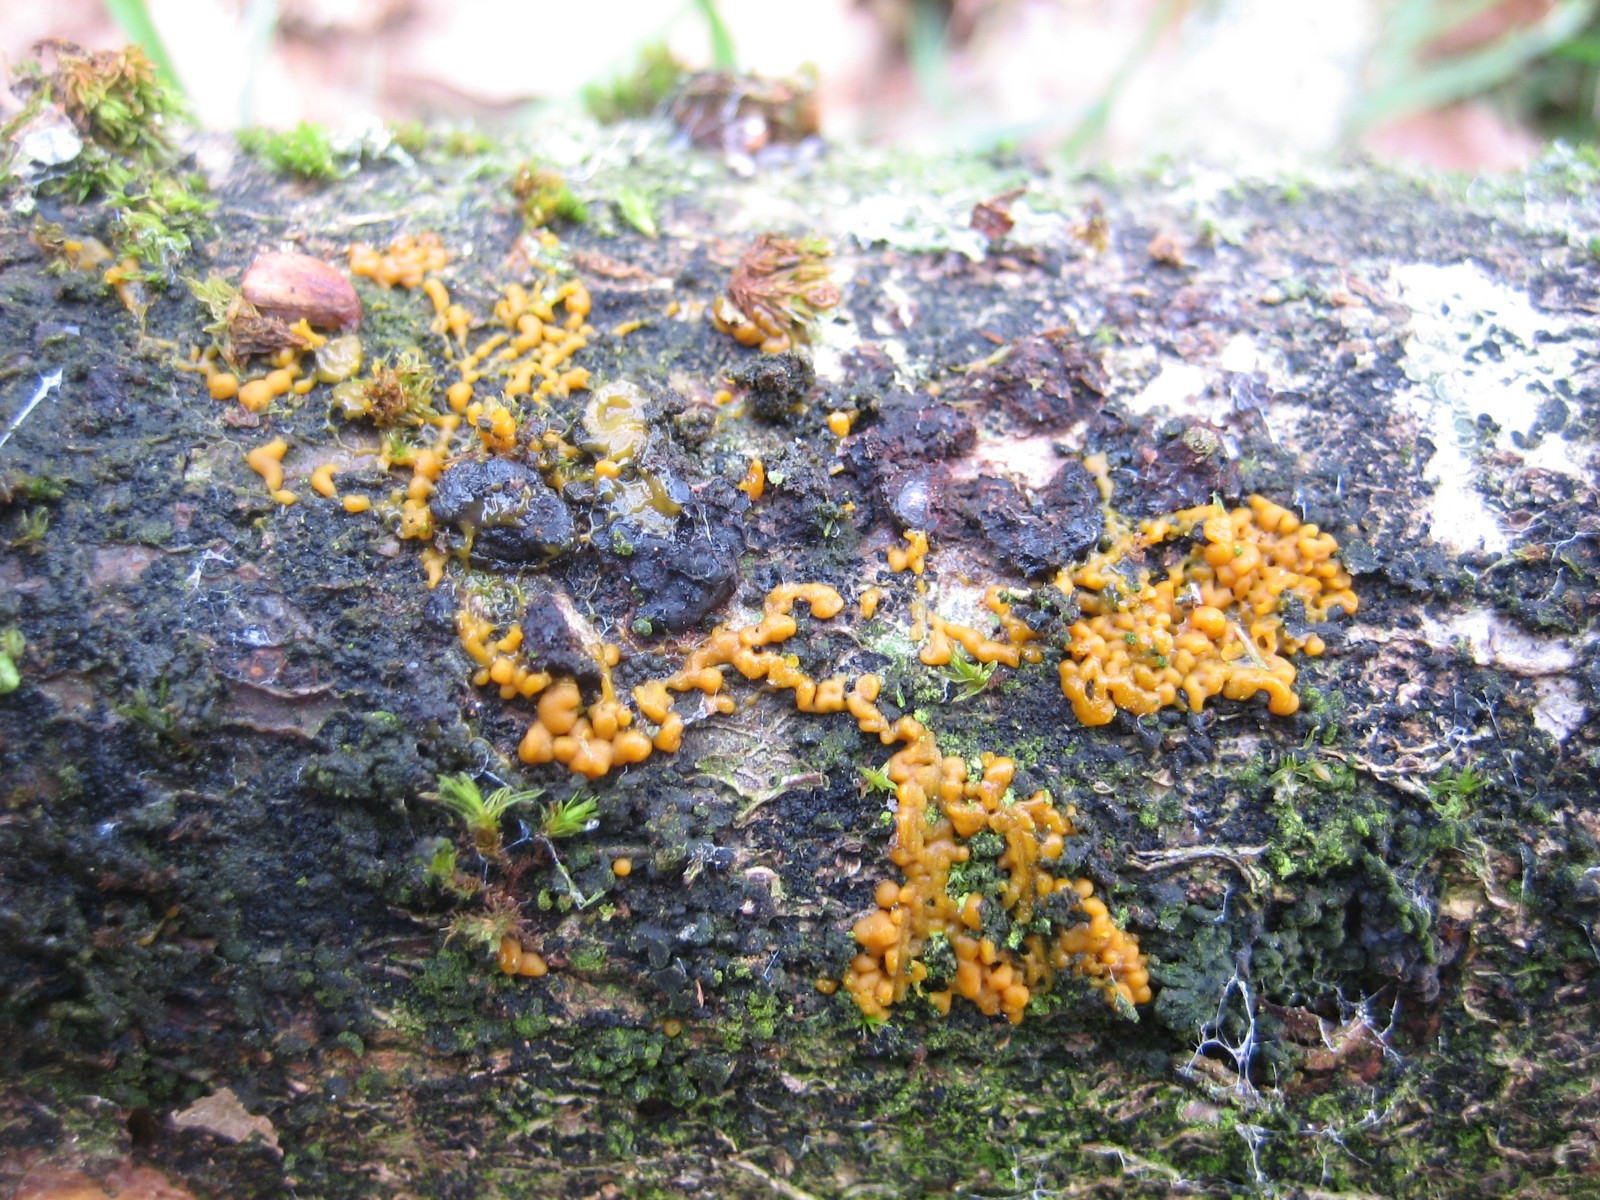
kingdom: Protozoa
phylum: Mycetozoa
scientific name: Mycetozoa
